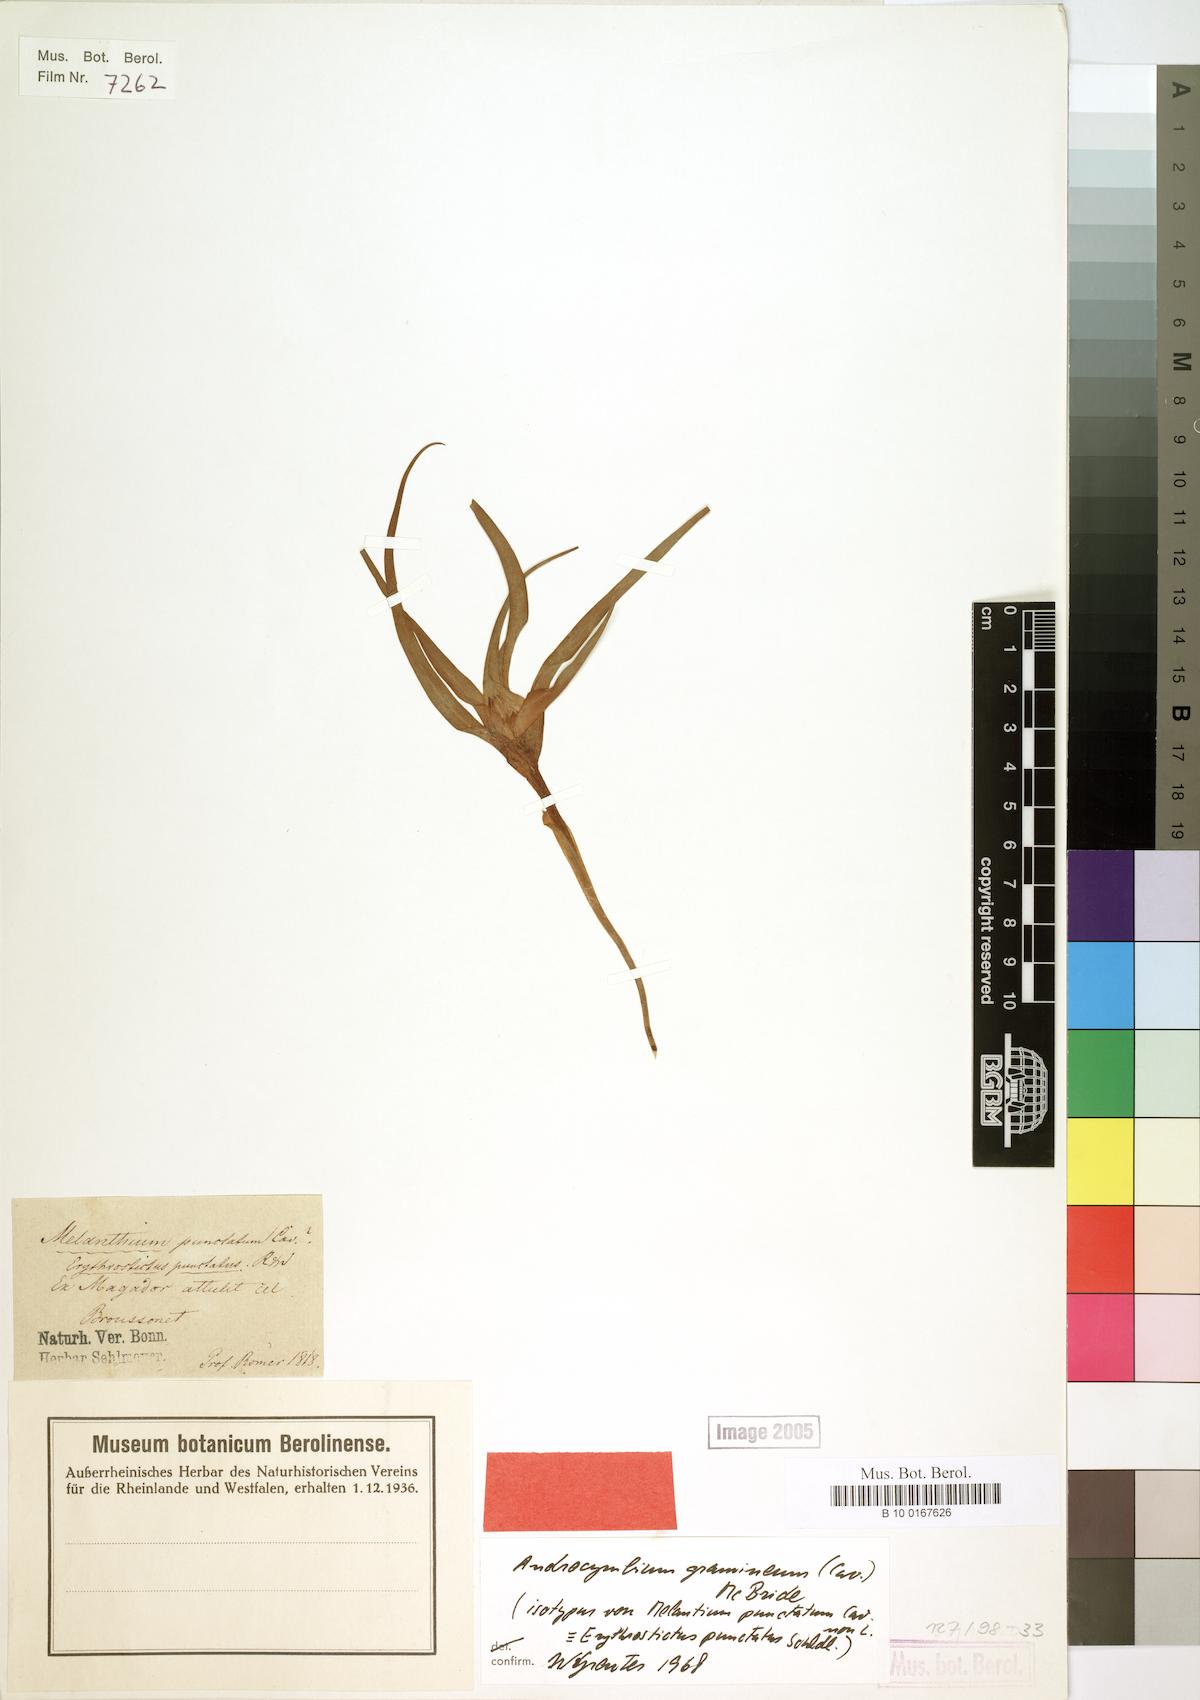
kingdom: Plantae
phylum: Tracheophyta
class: Liliopsida
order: Liliales
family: Colchicaceae
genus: Colchicum
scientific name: Colchicum gramineum
